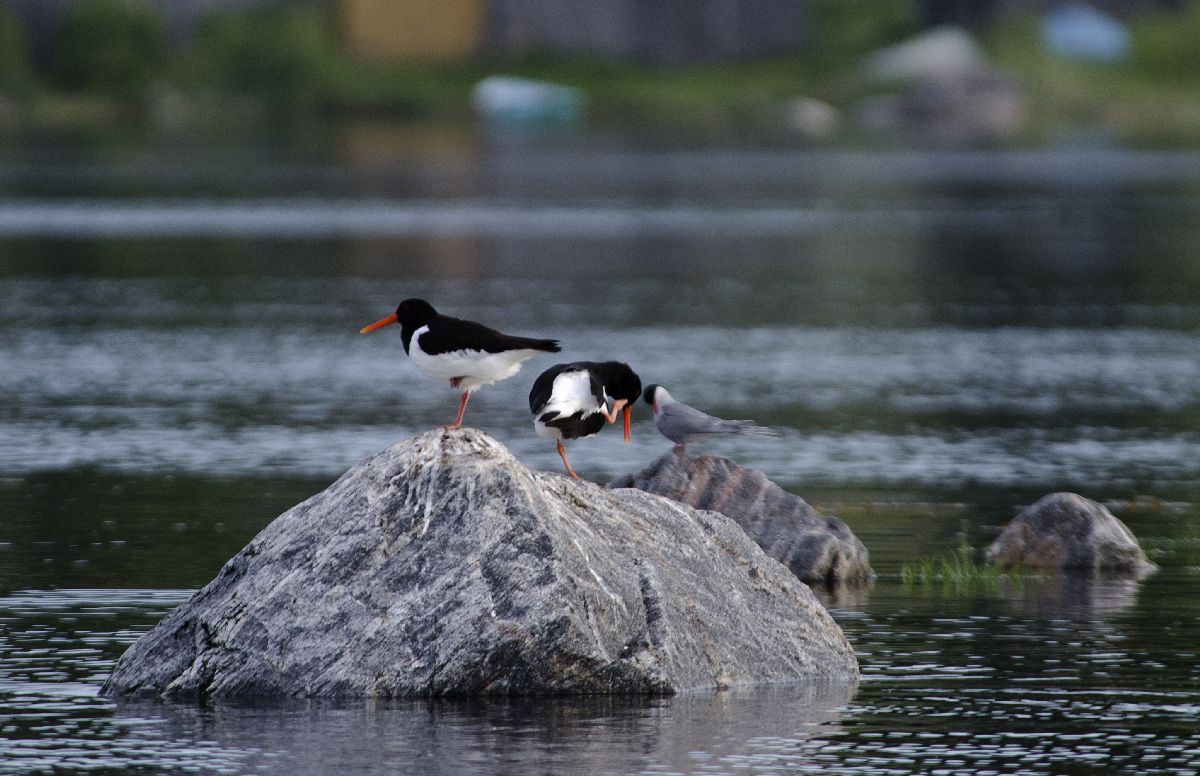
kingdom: Animalia
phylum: Chordata
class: Aves
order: Charadriiformes
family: Haematopodidae
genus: Haematopus
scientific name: Haematopus ostralegus
